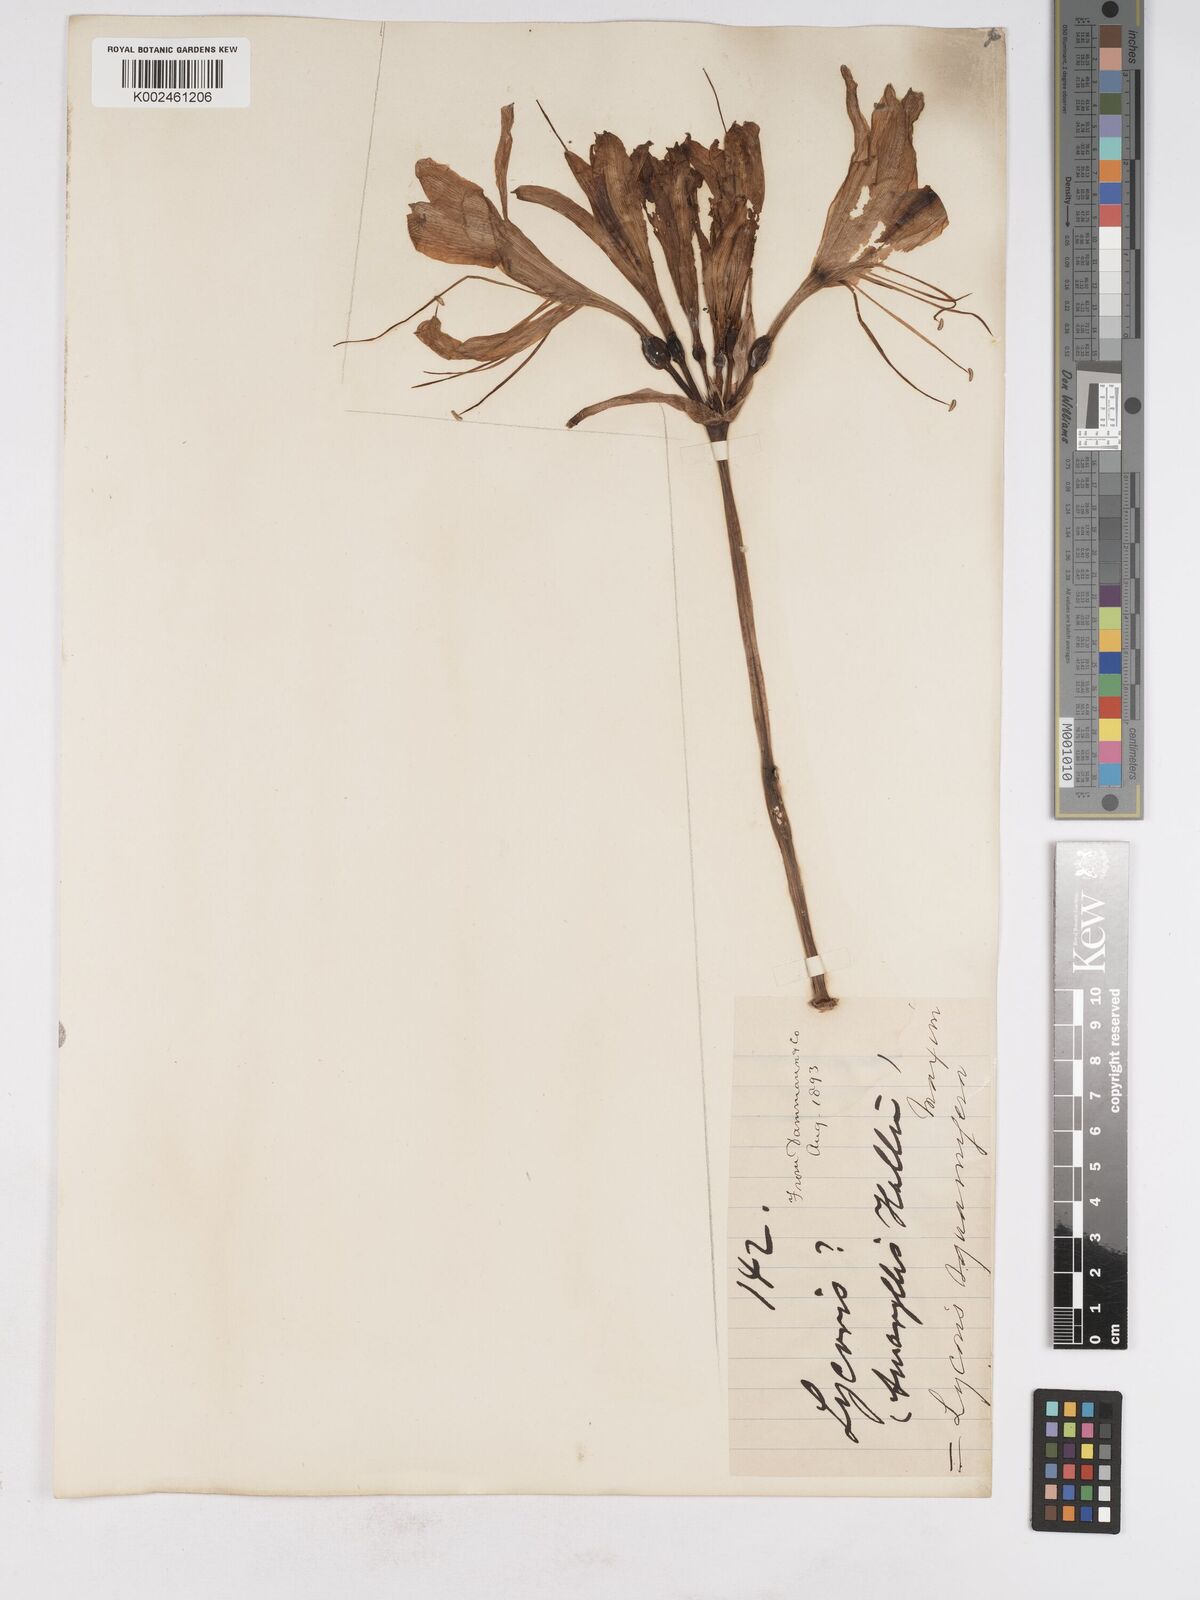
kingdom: Plantae
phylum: Tracheophyta
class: Liliopsida
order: Asparagales
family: Amaryllidaceae
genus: Lycoris
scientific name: Lycoris squamigera
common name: Magic-lily
